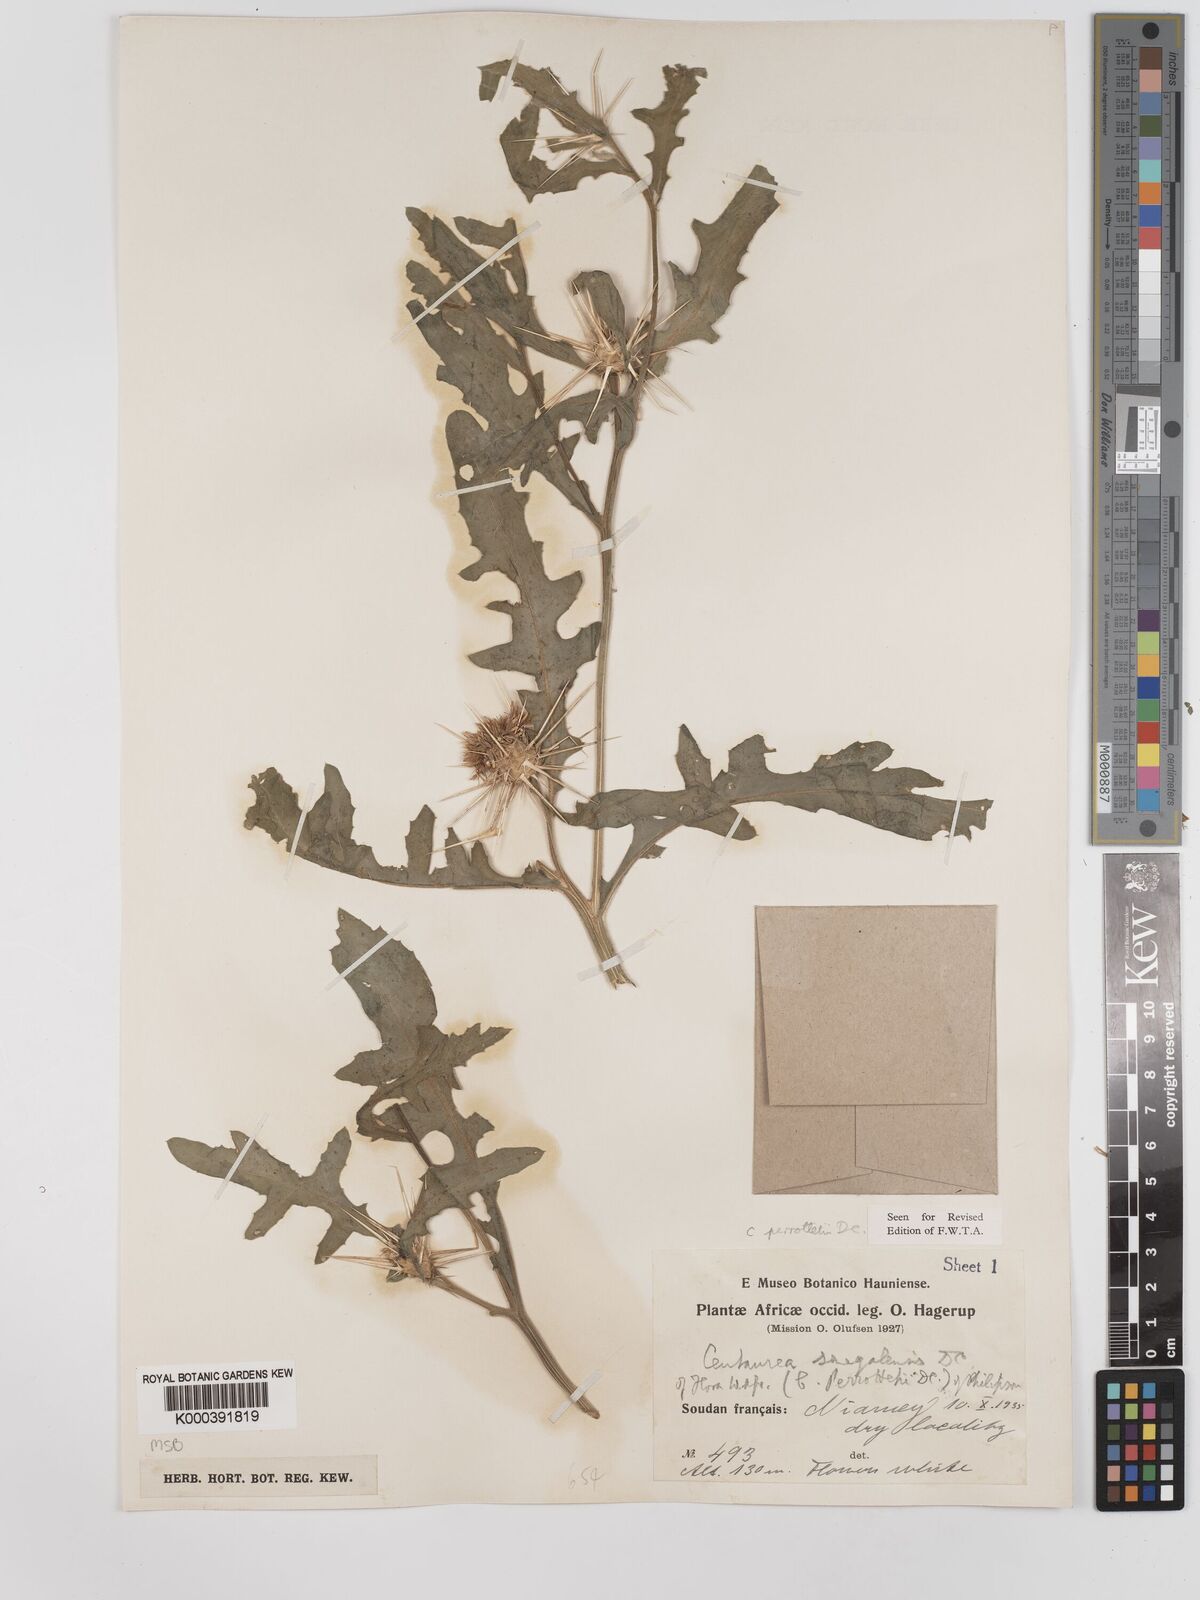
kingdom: Plantae
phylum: Tracheophyta
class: Magnoliopsida
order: Asterales
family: Asteraceae
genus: Centaurea
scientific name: Centaurea senegalensis
